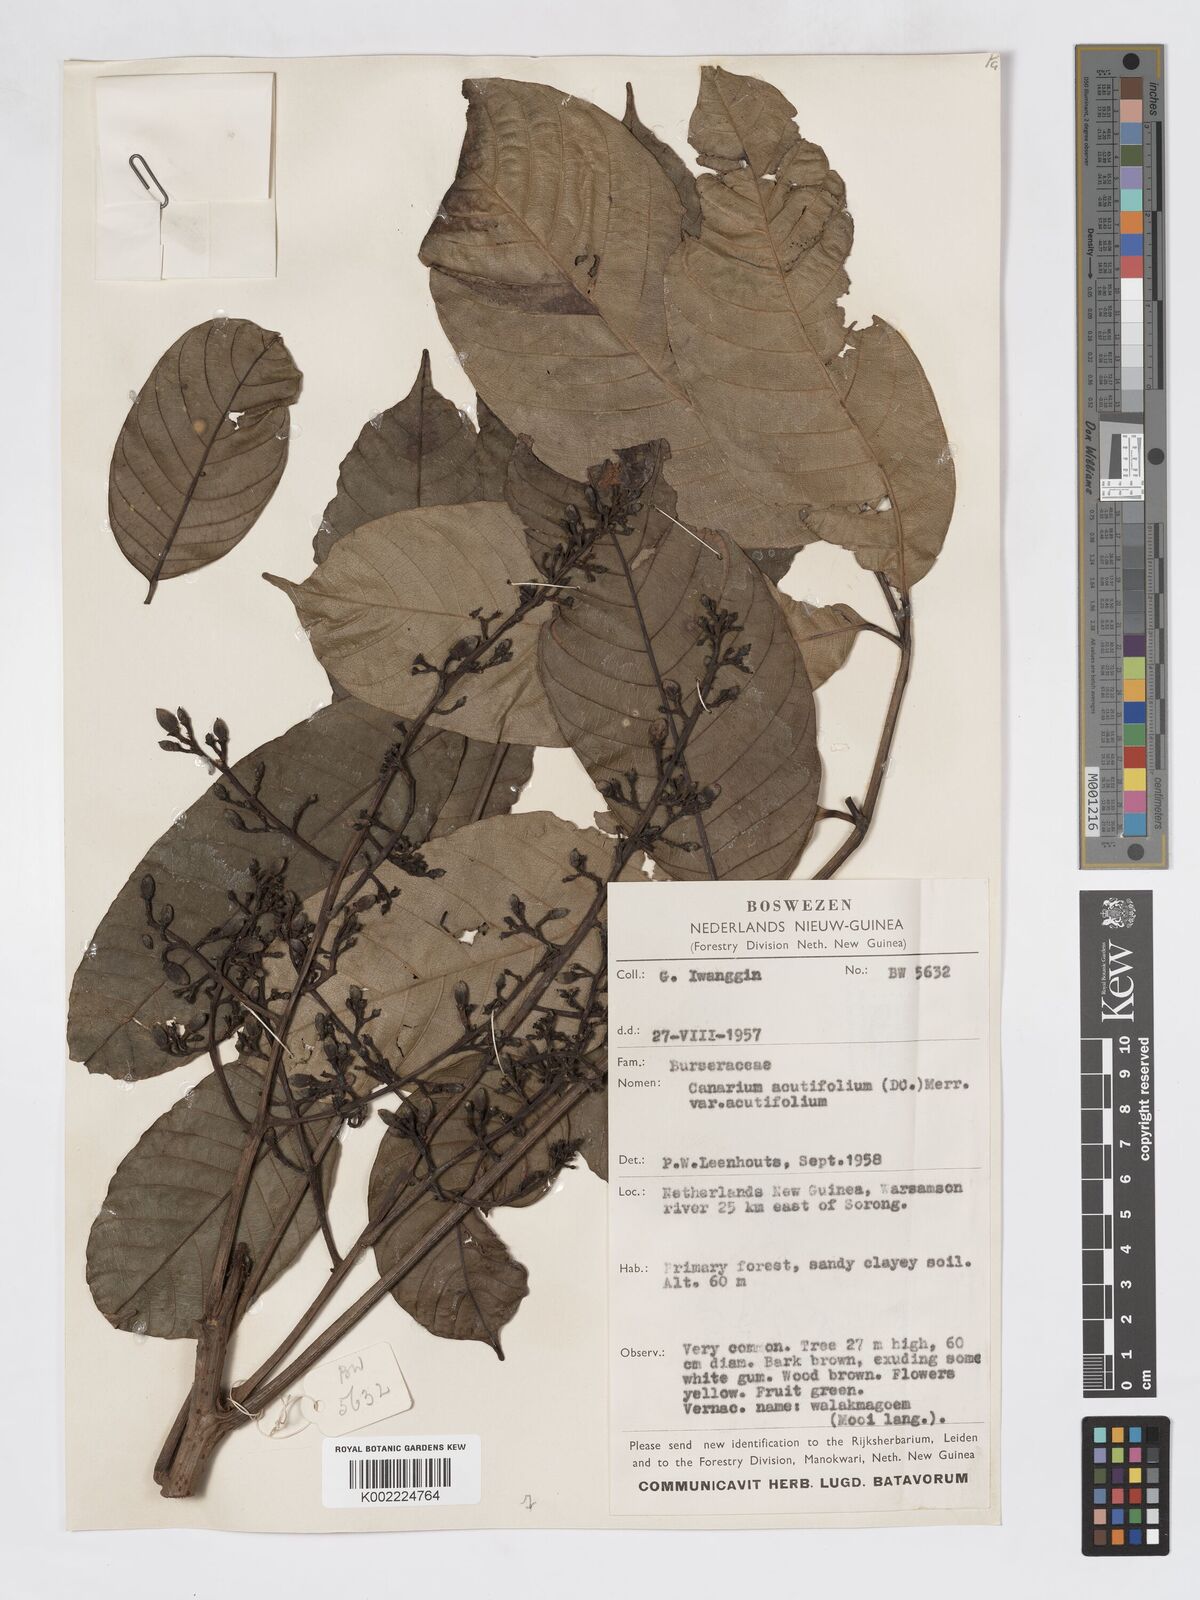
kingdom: Plantae
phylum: Tracheophyta
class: Magnoliopsida
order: Sapindales
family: Burseraceae
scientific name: Burseraceae
